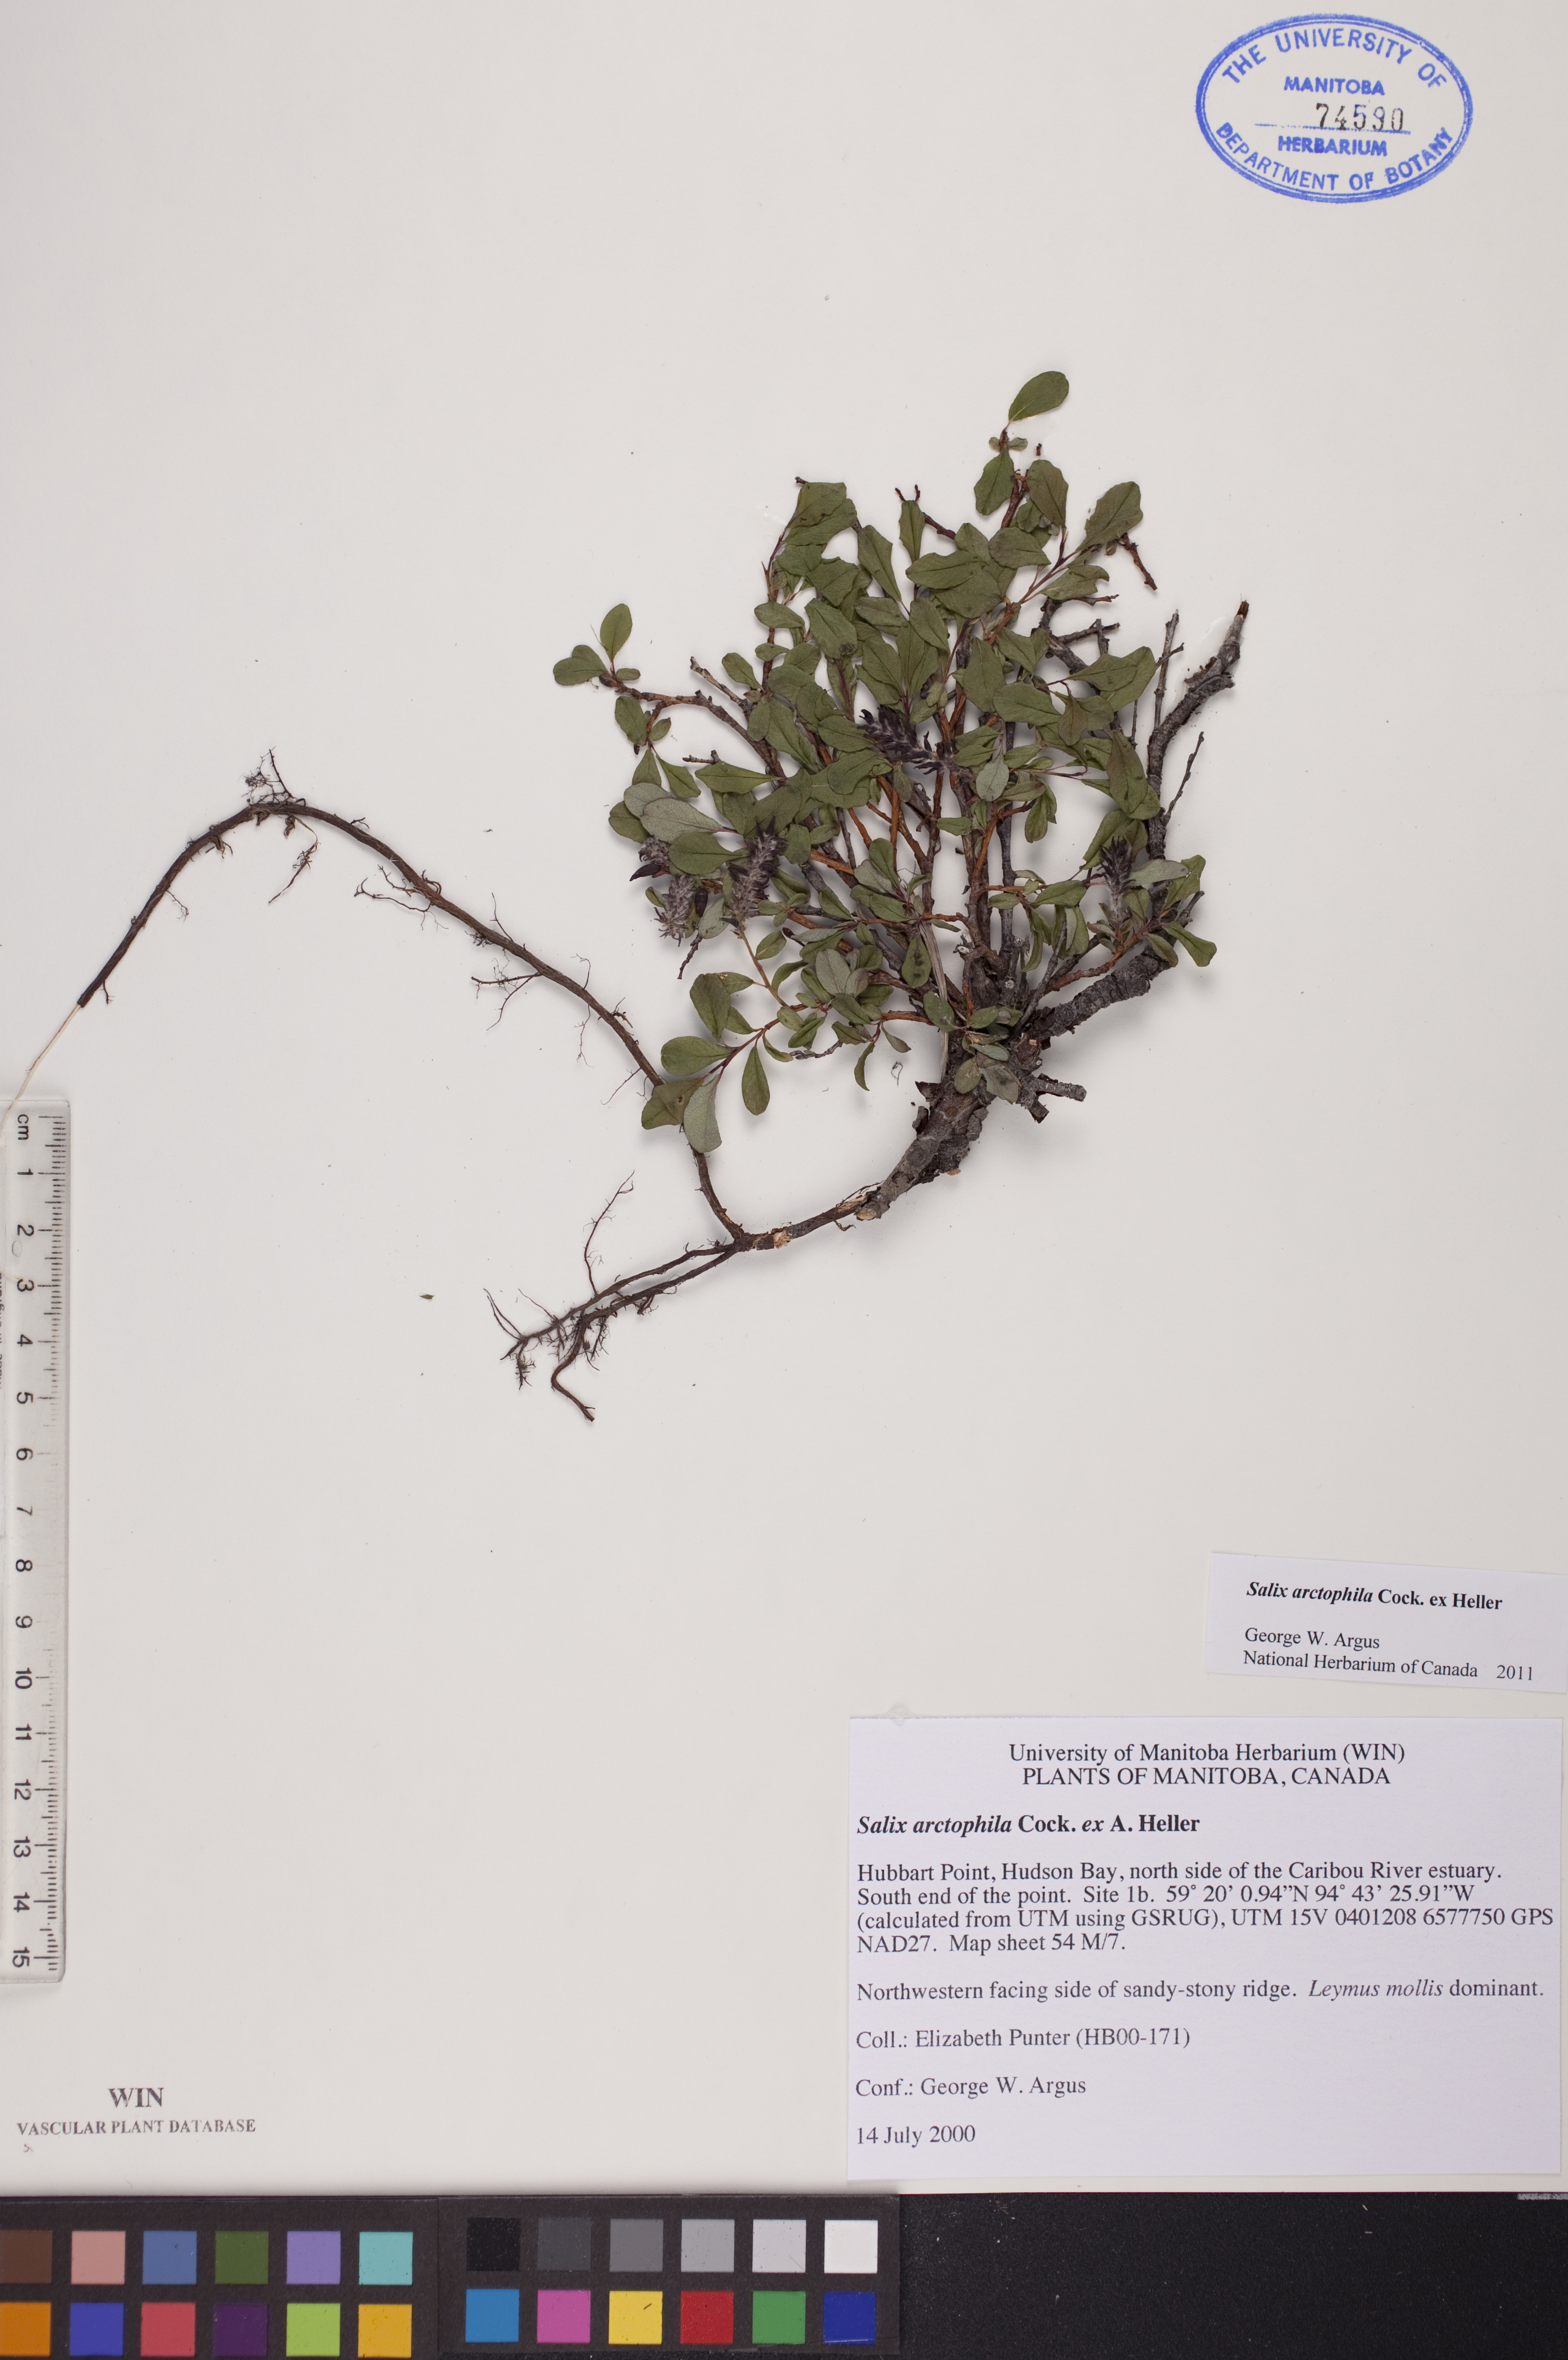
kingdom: Plantae
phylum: Tracheophyta
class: Magnoliopsida
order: Malpighiales
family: Salicaceae
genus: Salix
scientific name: Salix arctophila
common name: Greenland willow
